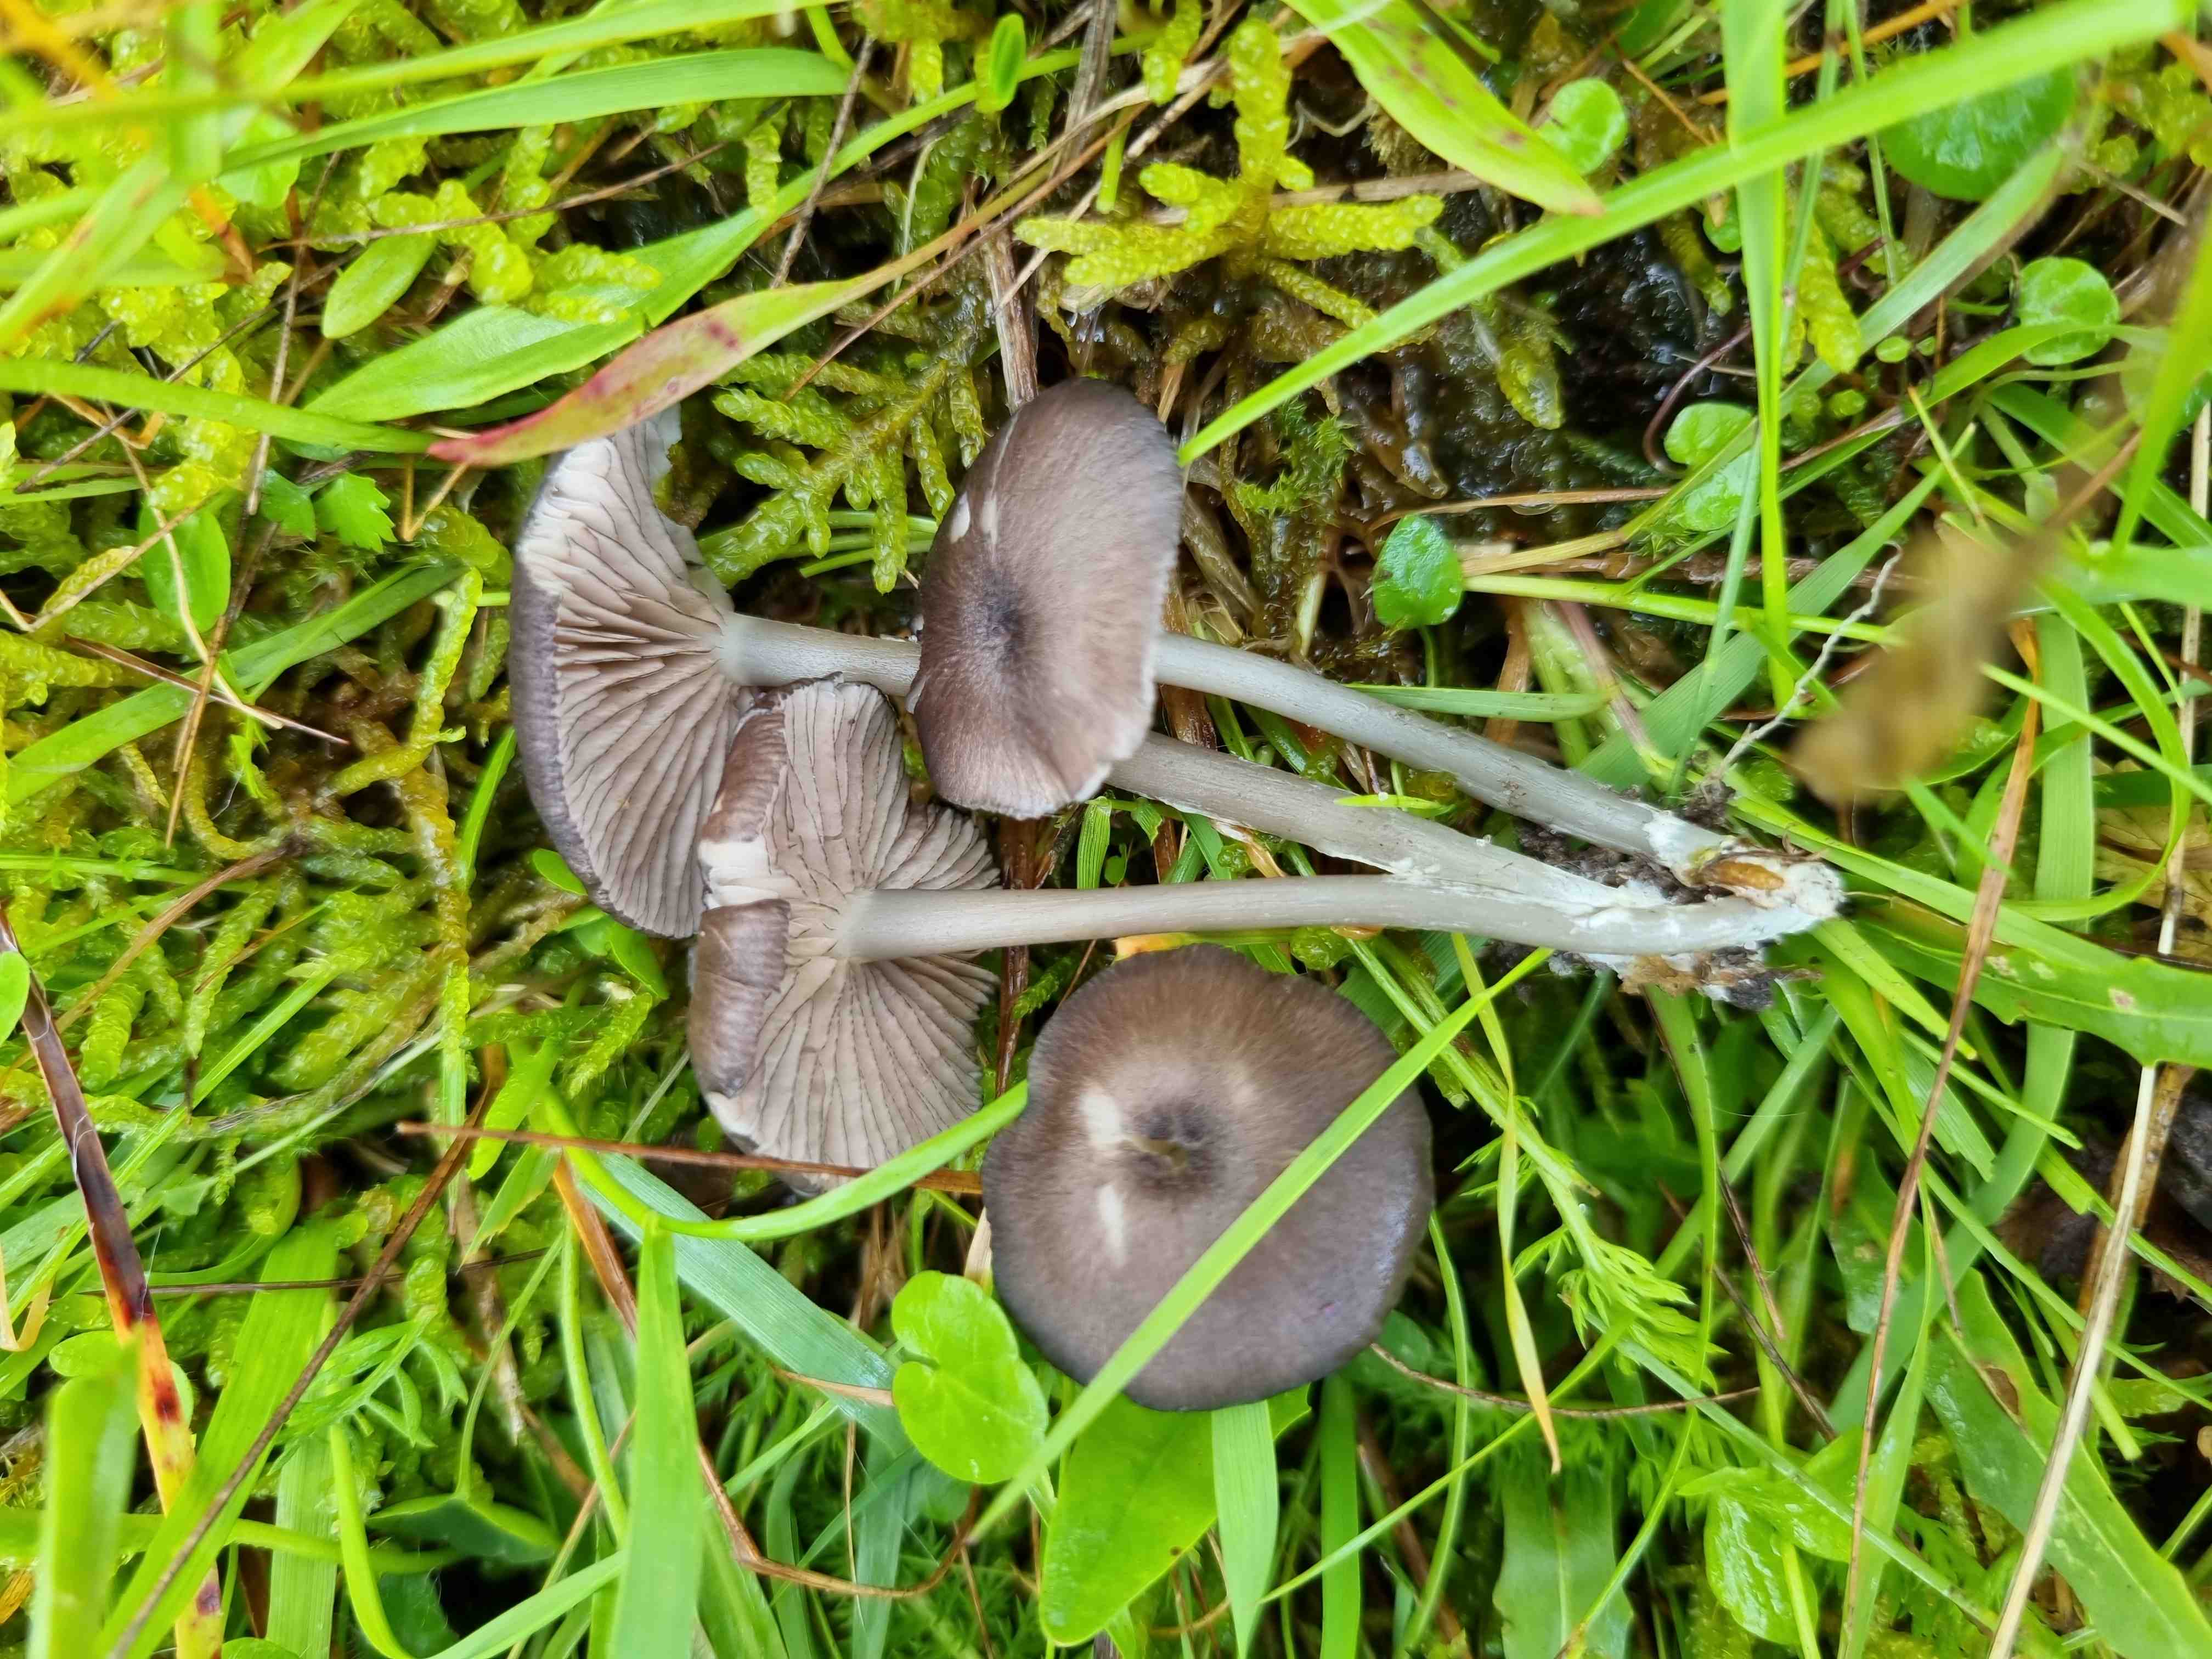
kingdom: Fungi
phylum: Basidiomycota
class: Agaricomycetes
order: Agaricales
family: Entolomataceae
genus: Entoloma
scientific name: Entoloma
